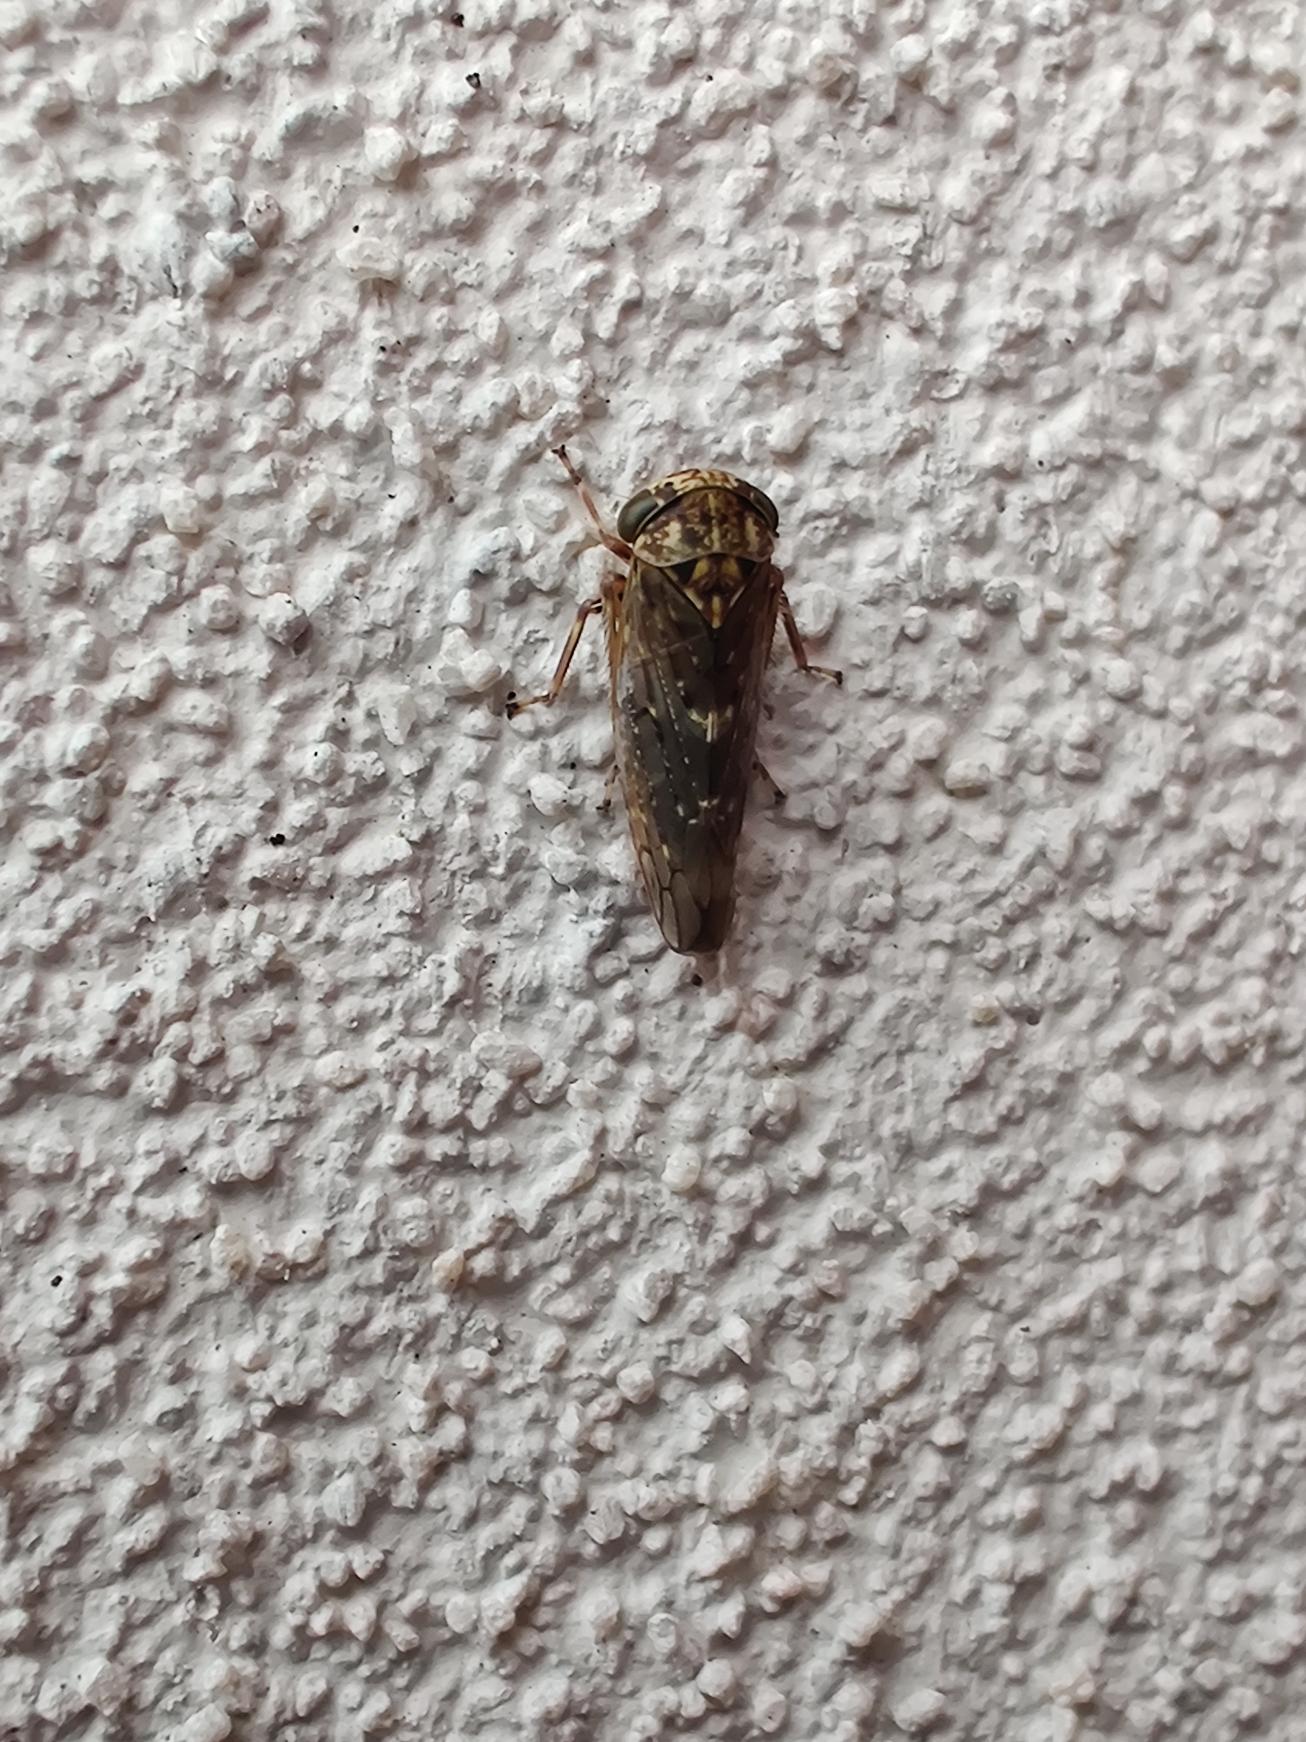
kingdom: Animalia
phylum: Arthropoda
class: Insecta
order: Hemiptera
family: Cicadellidae
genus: Acericerus
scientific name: Acericerus heydenii
